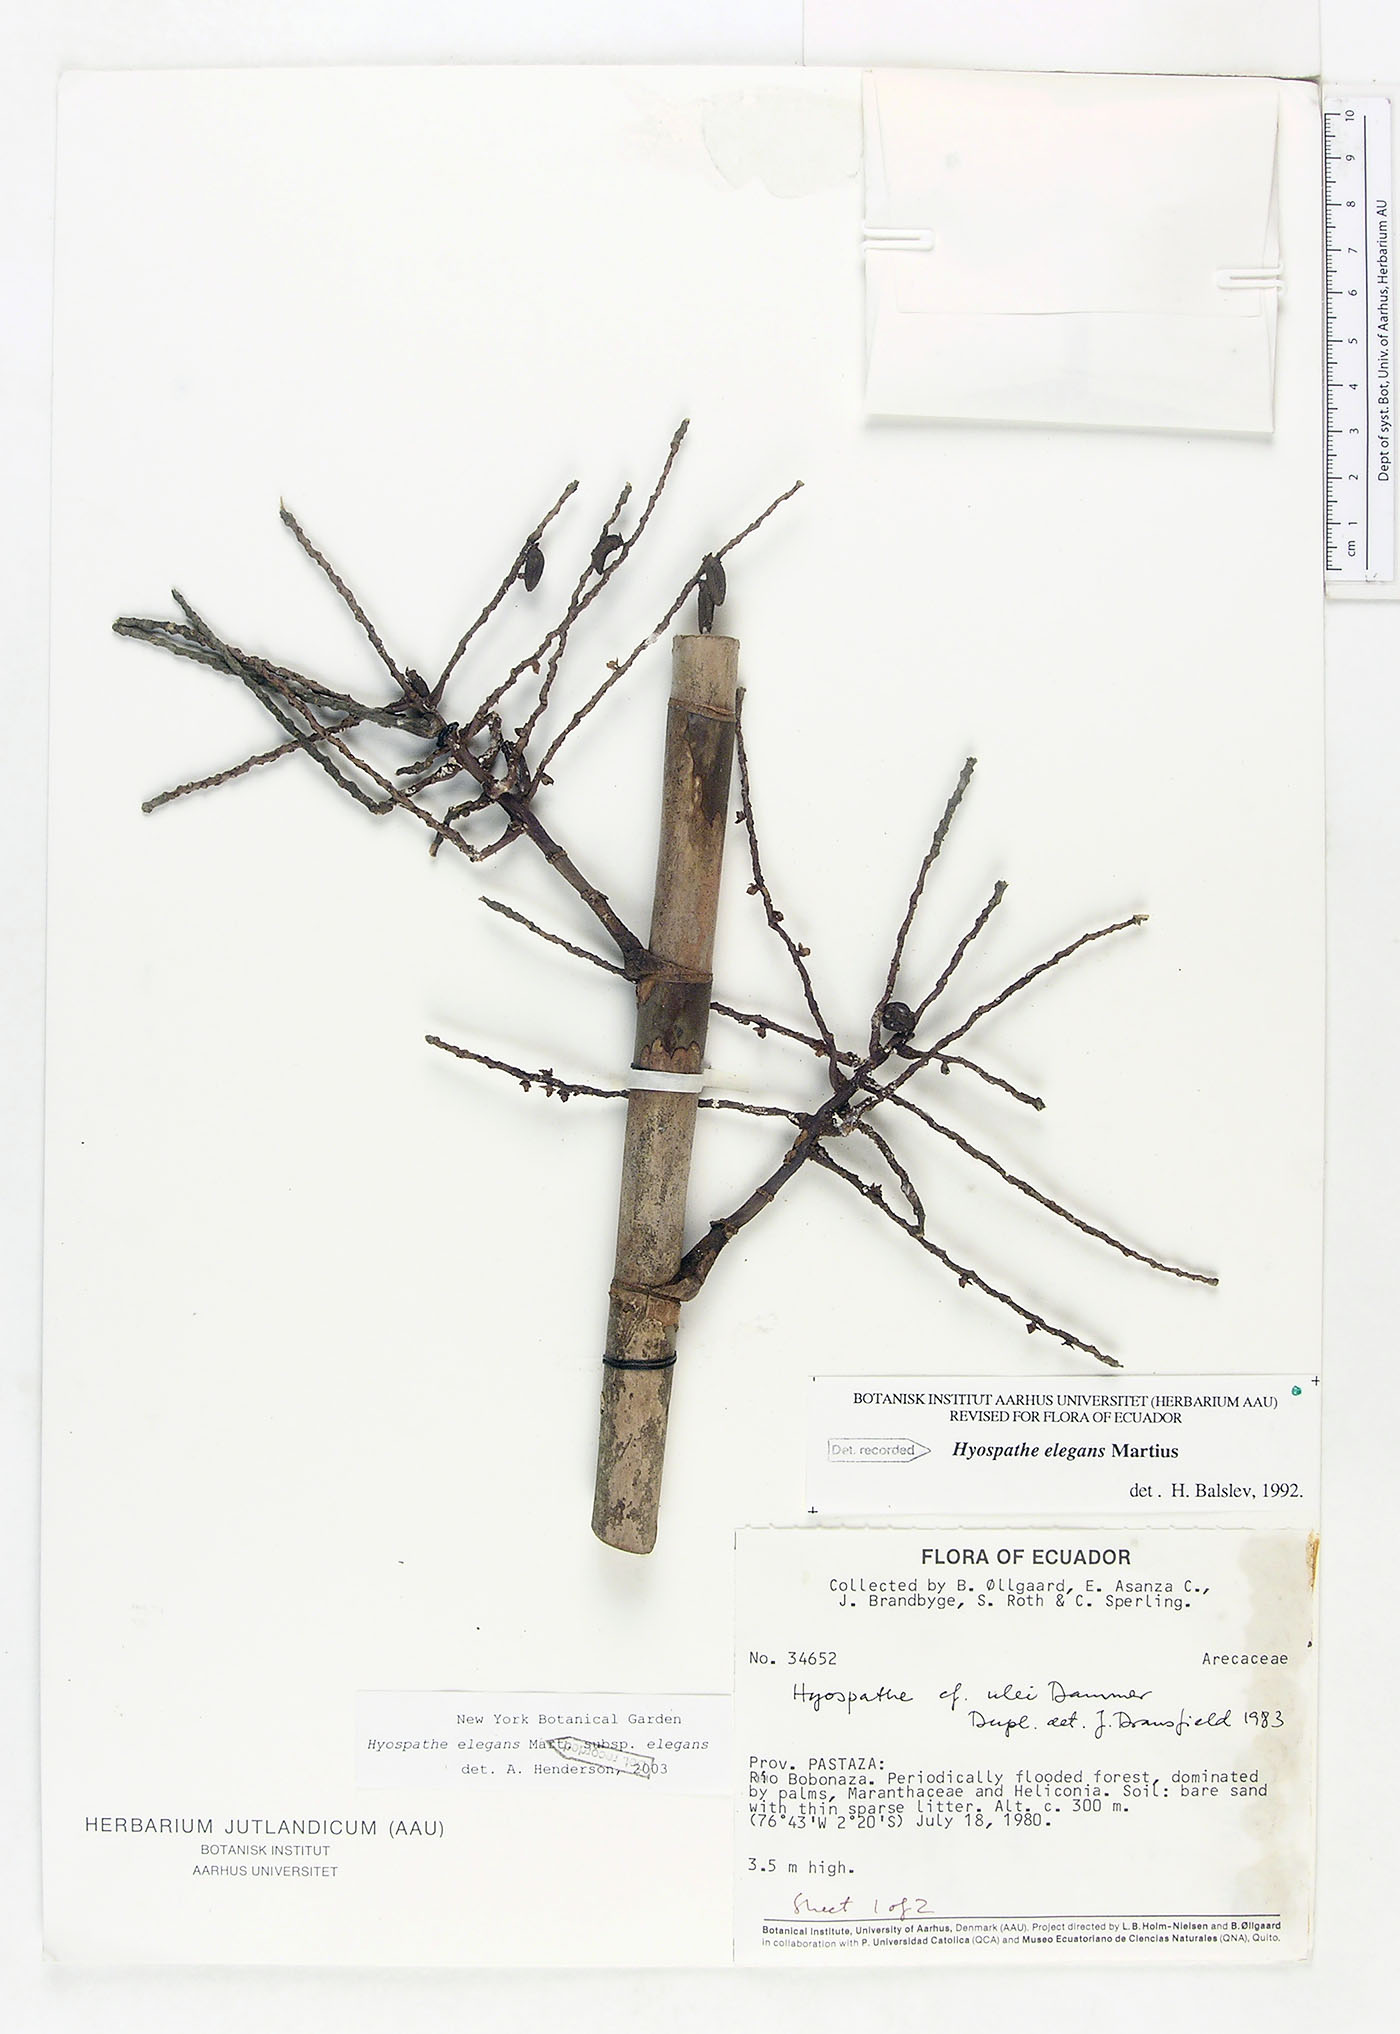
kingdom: Plantae
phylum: Tracheophyta
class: Liliopsida
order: Arecales
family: Arecaceae
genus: Hyospathe
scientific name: Hyospathe elegans
